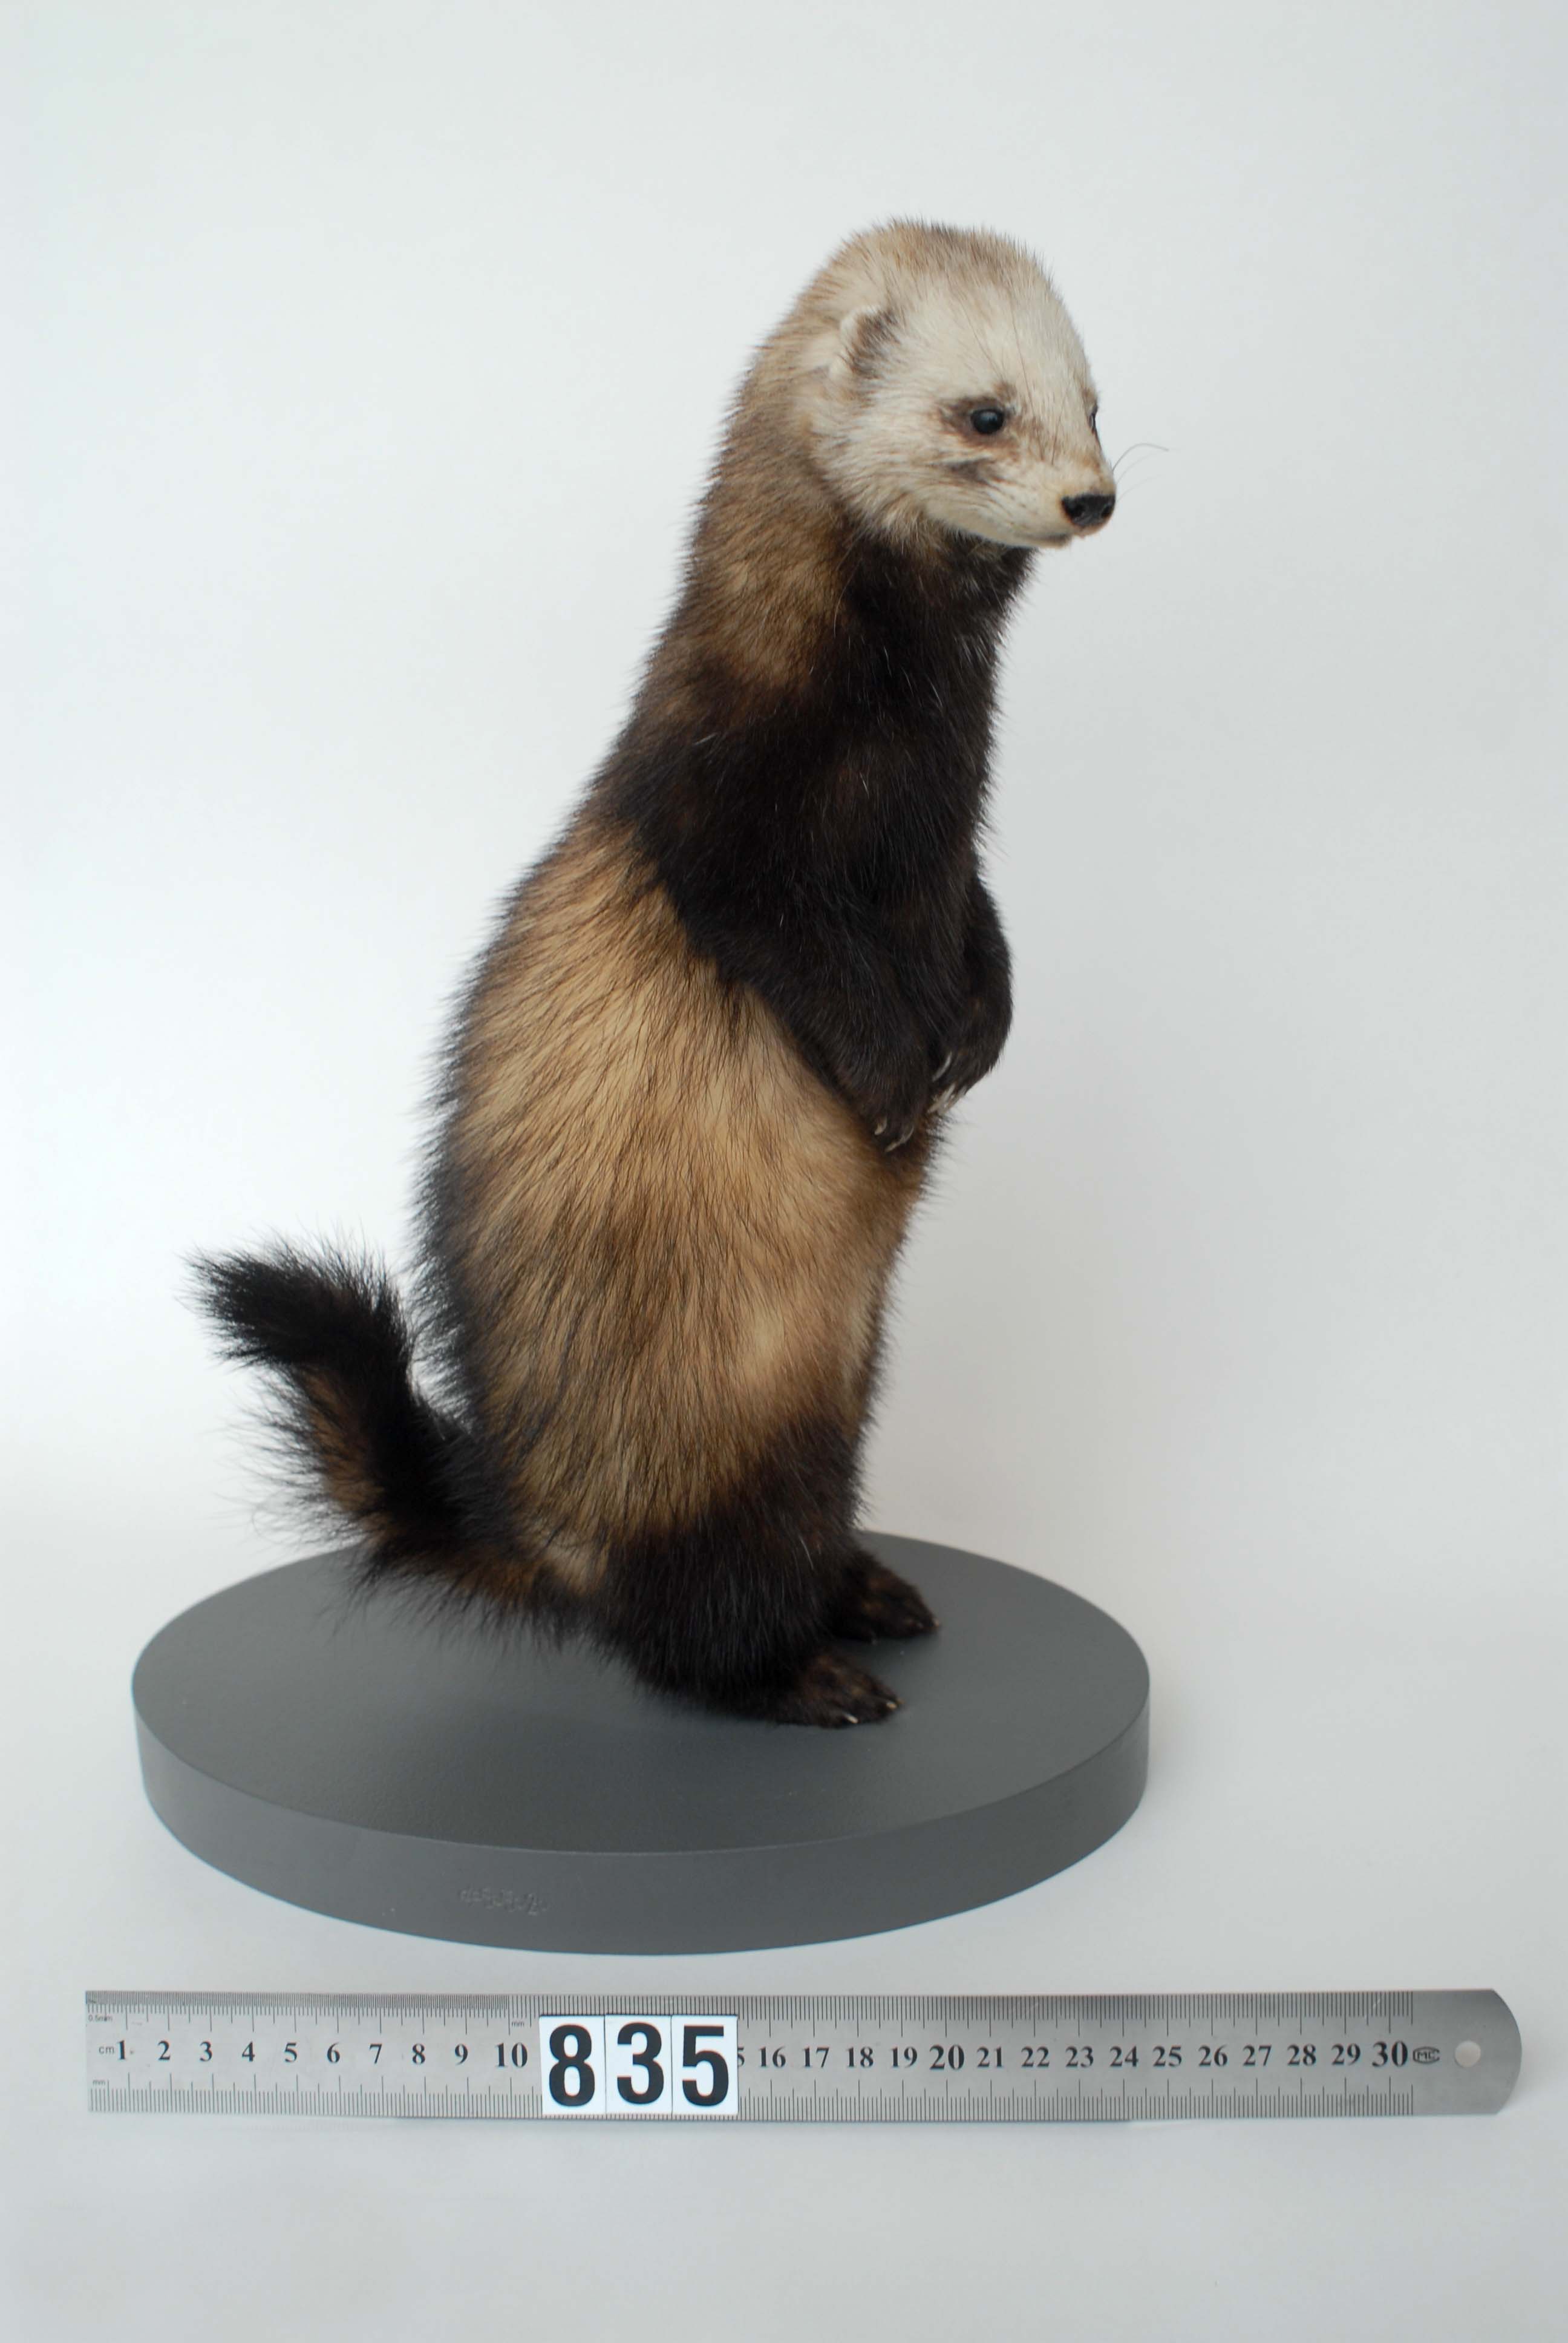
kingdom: Animalia
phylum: Chordata
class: Mammalia
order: Carnivora
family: Mustelidae
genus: Mustela
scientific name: Mustela putorius
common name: European polecat
